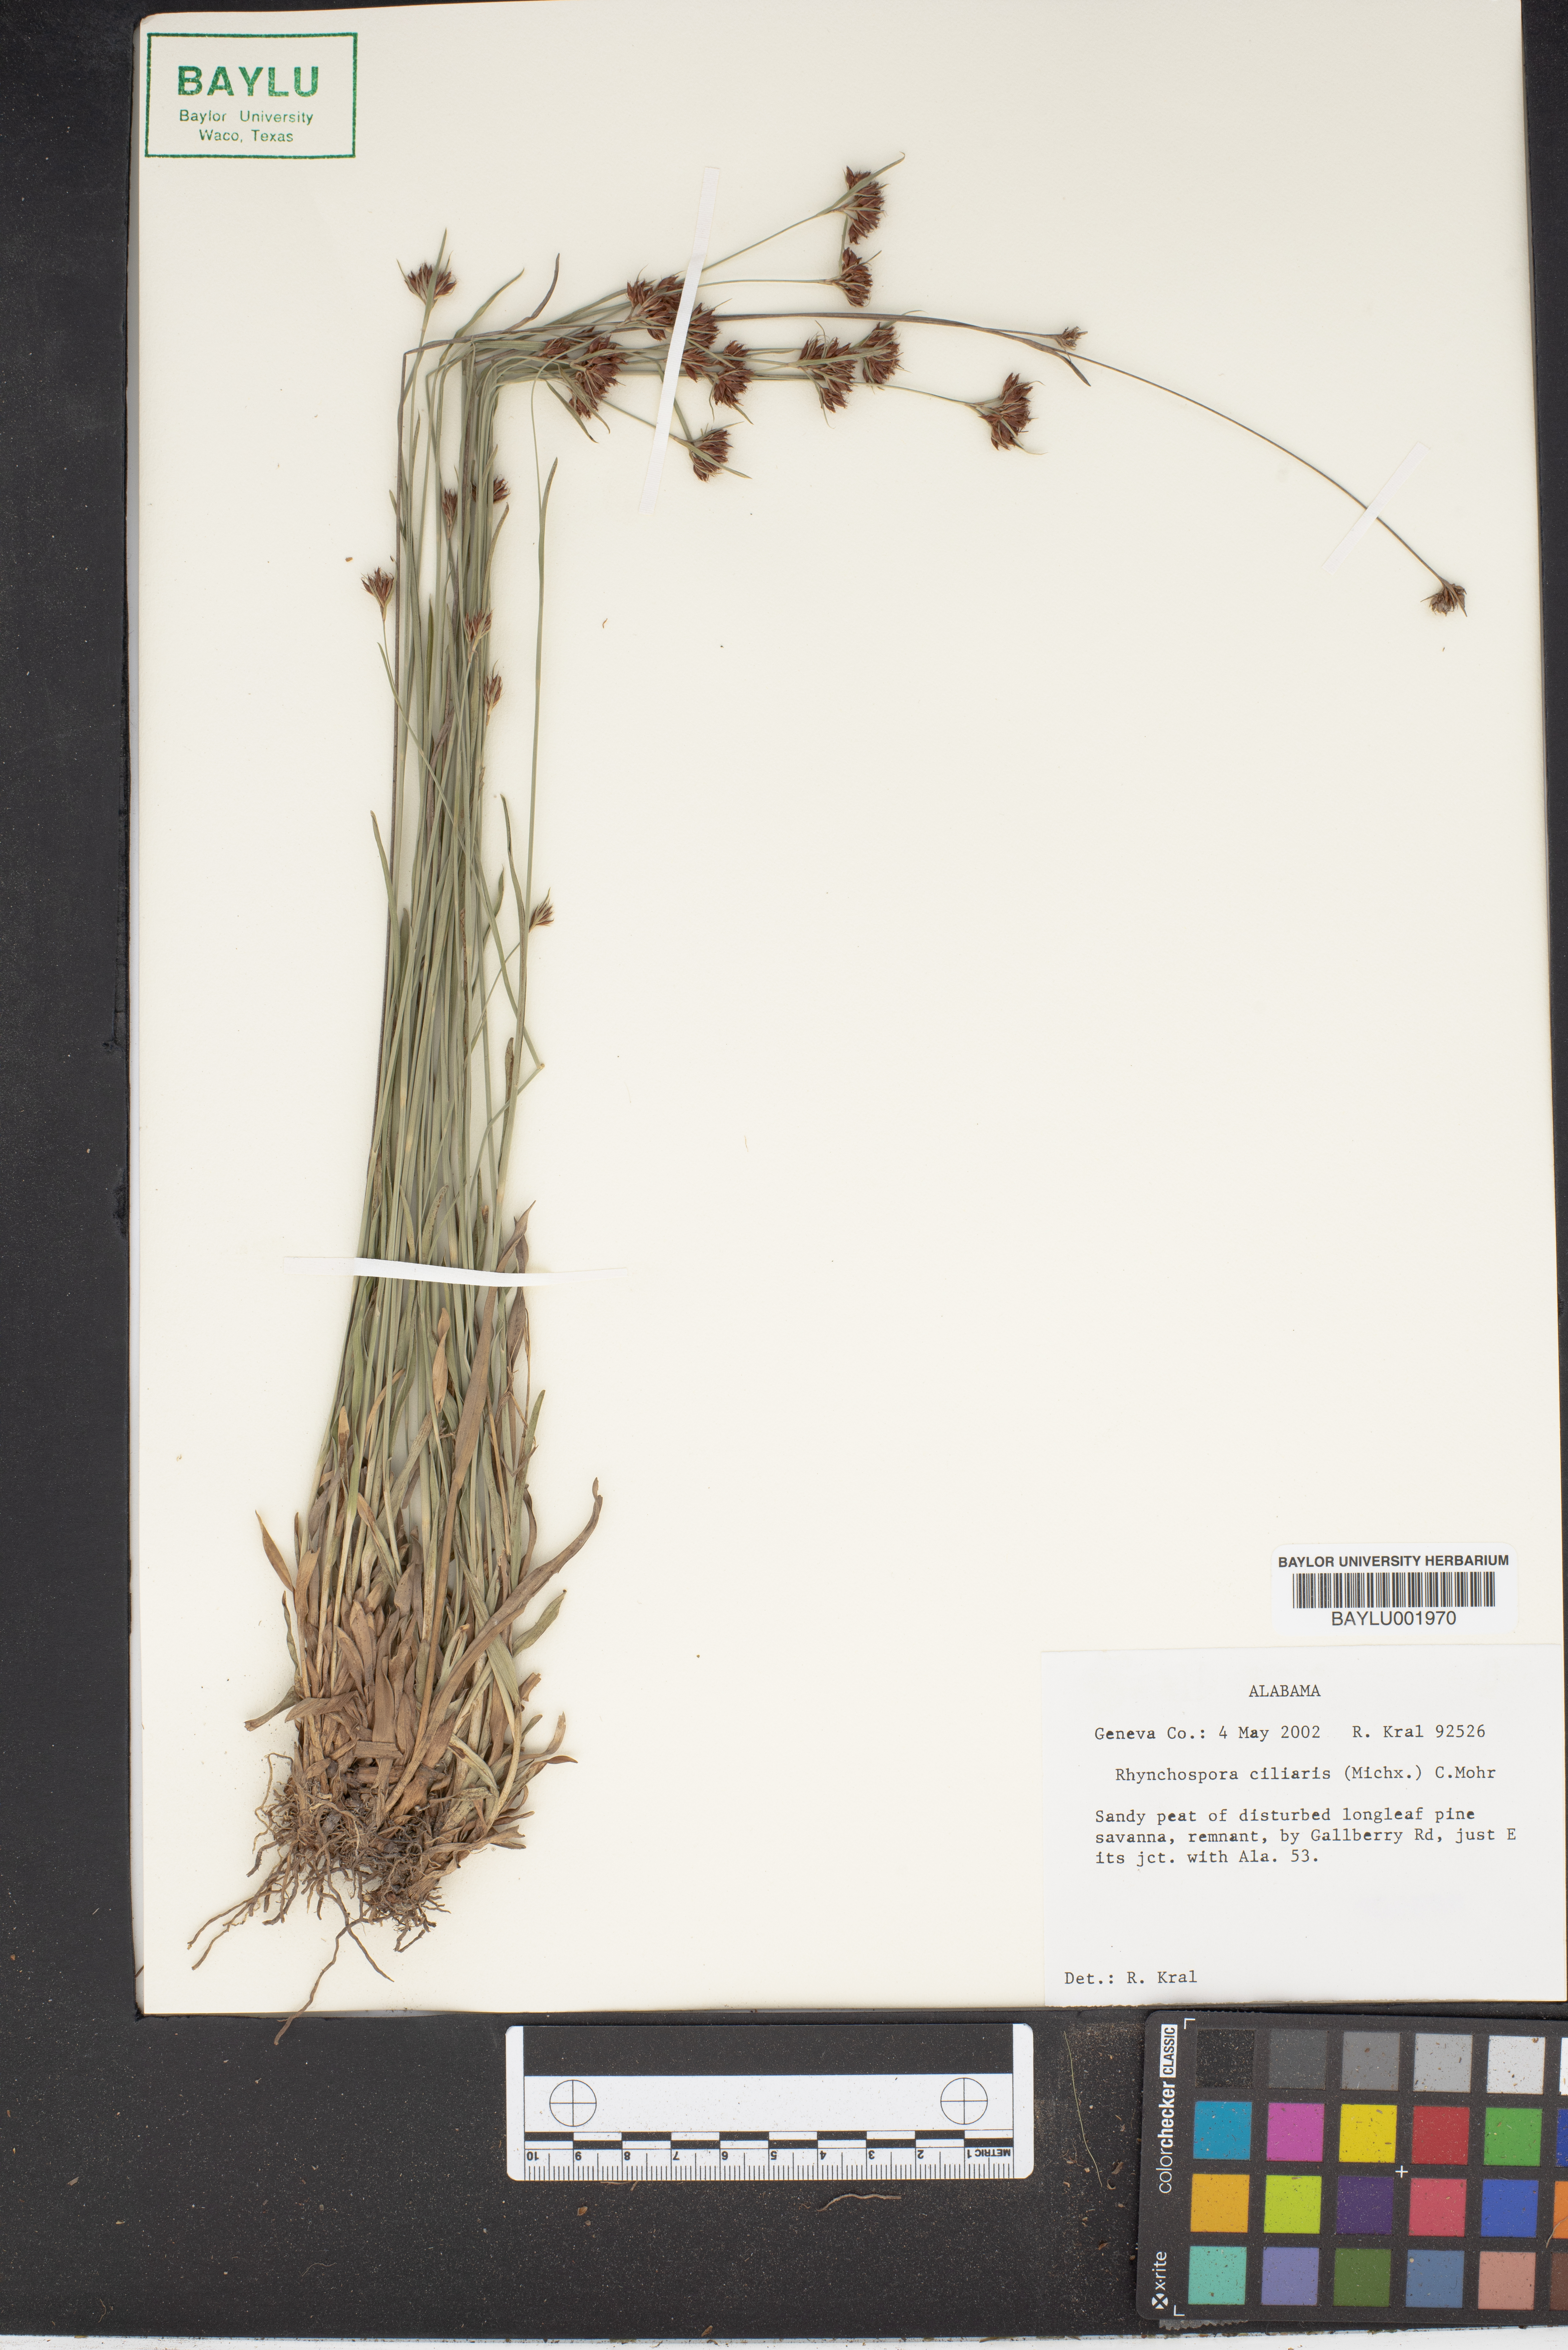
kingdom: Plantae
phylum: Tracheophyta
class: Liliopsida
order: Poales
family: Cyperaceae
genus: Rhynchospora
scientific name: Rhynchospora ciliaris
